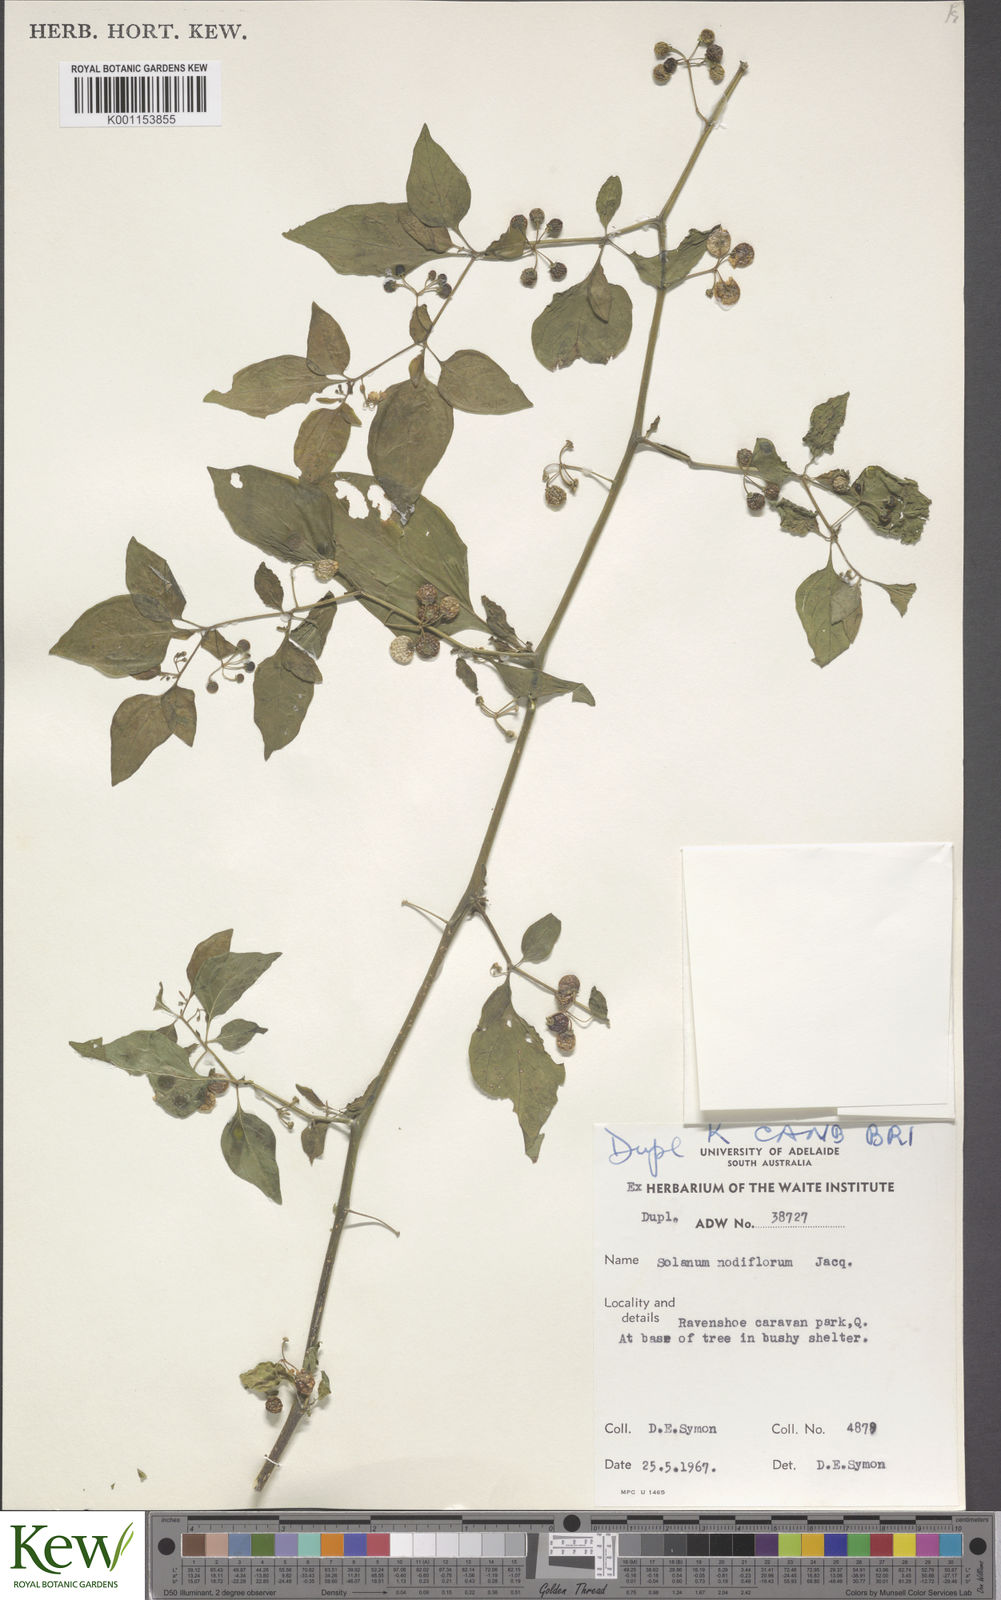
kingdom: Plantae
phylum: Tracheophyta
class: Magnoliopsida
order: Solanales
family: Solanaceae
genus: Solanum
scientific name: Solanum americanum
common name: American black nightshade
